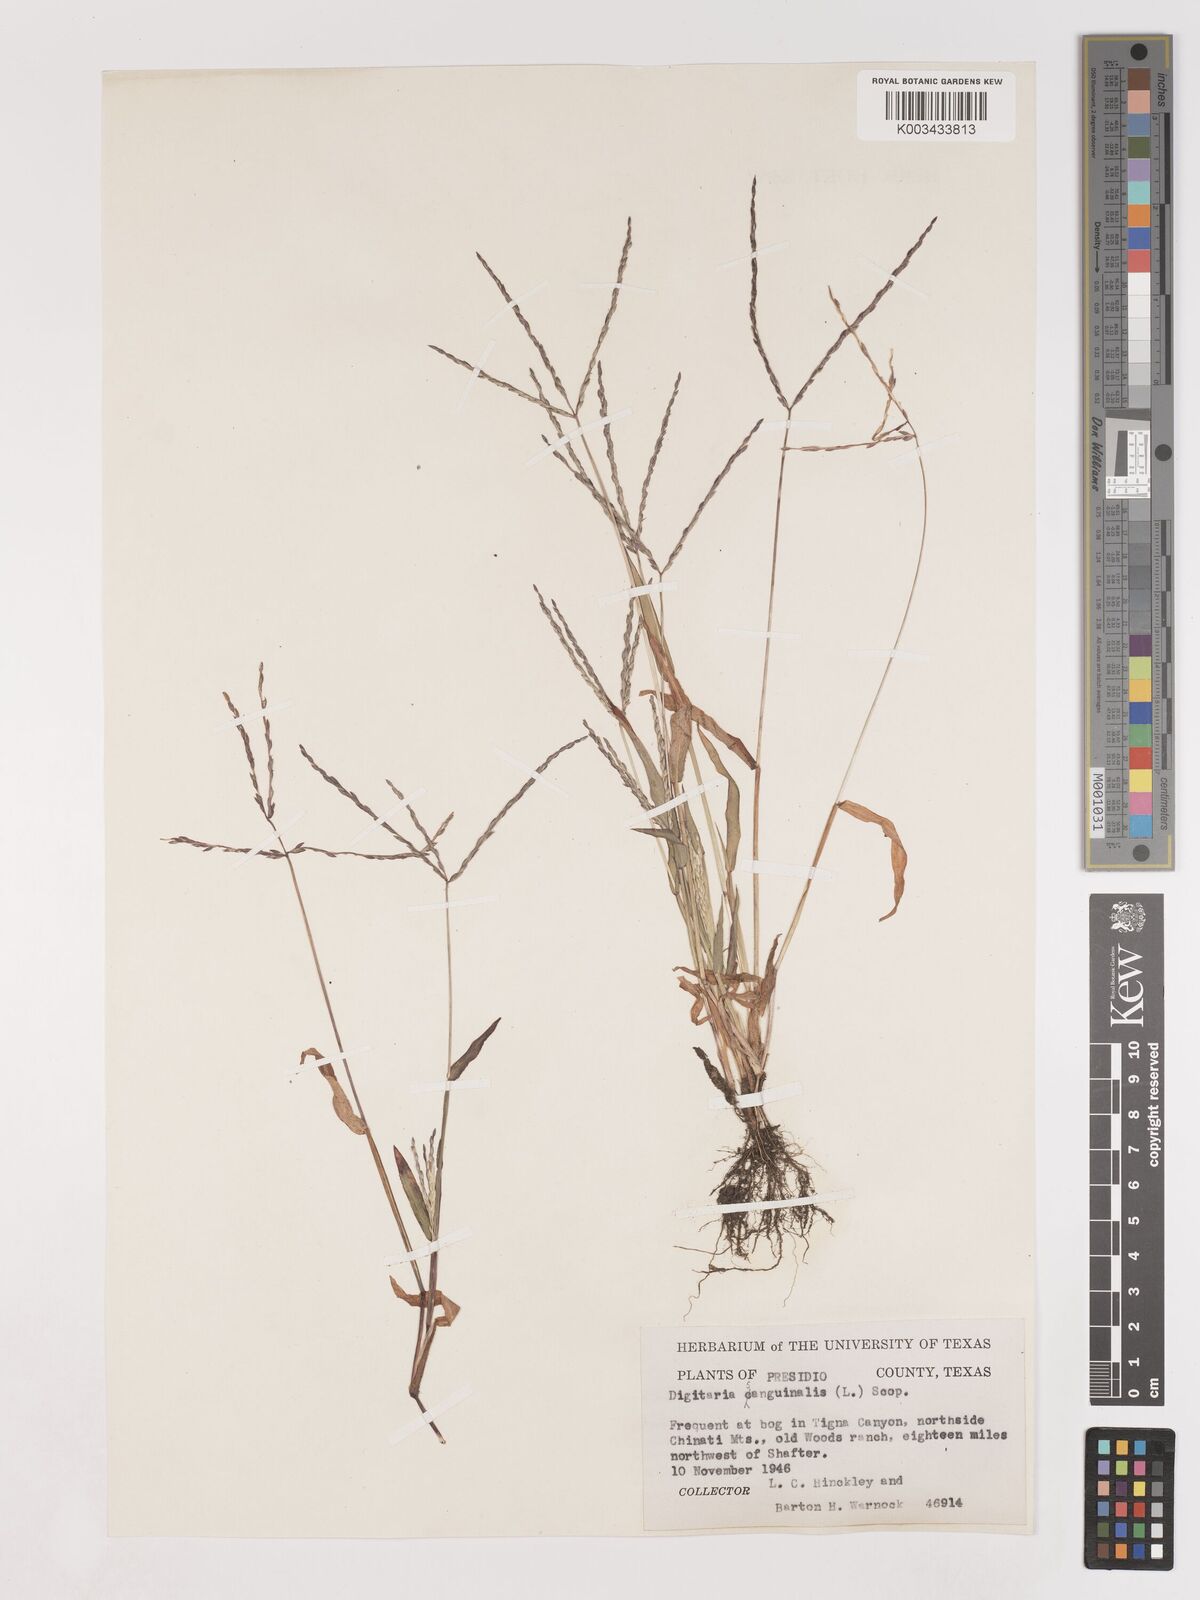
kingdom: Plantae
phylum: Tracheophyta
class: Liliopsida
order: Poales
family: Poaceae
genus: Digitaria
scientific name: Digitaria sanguinalis
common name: Hairy crabgrass
